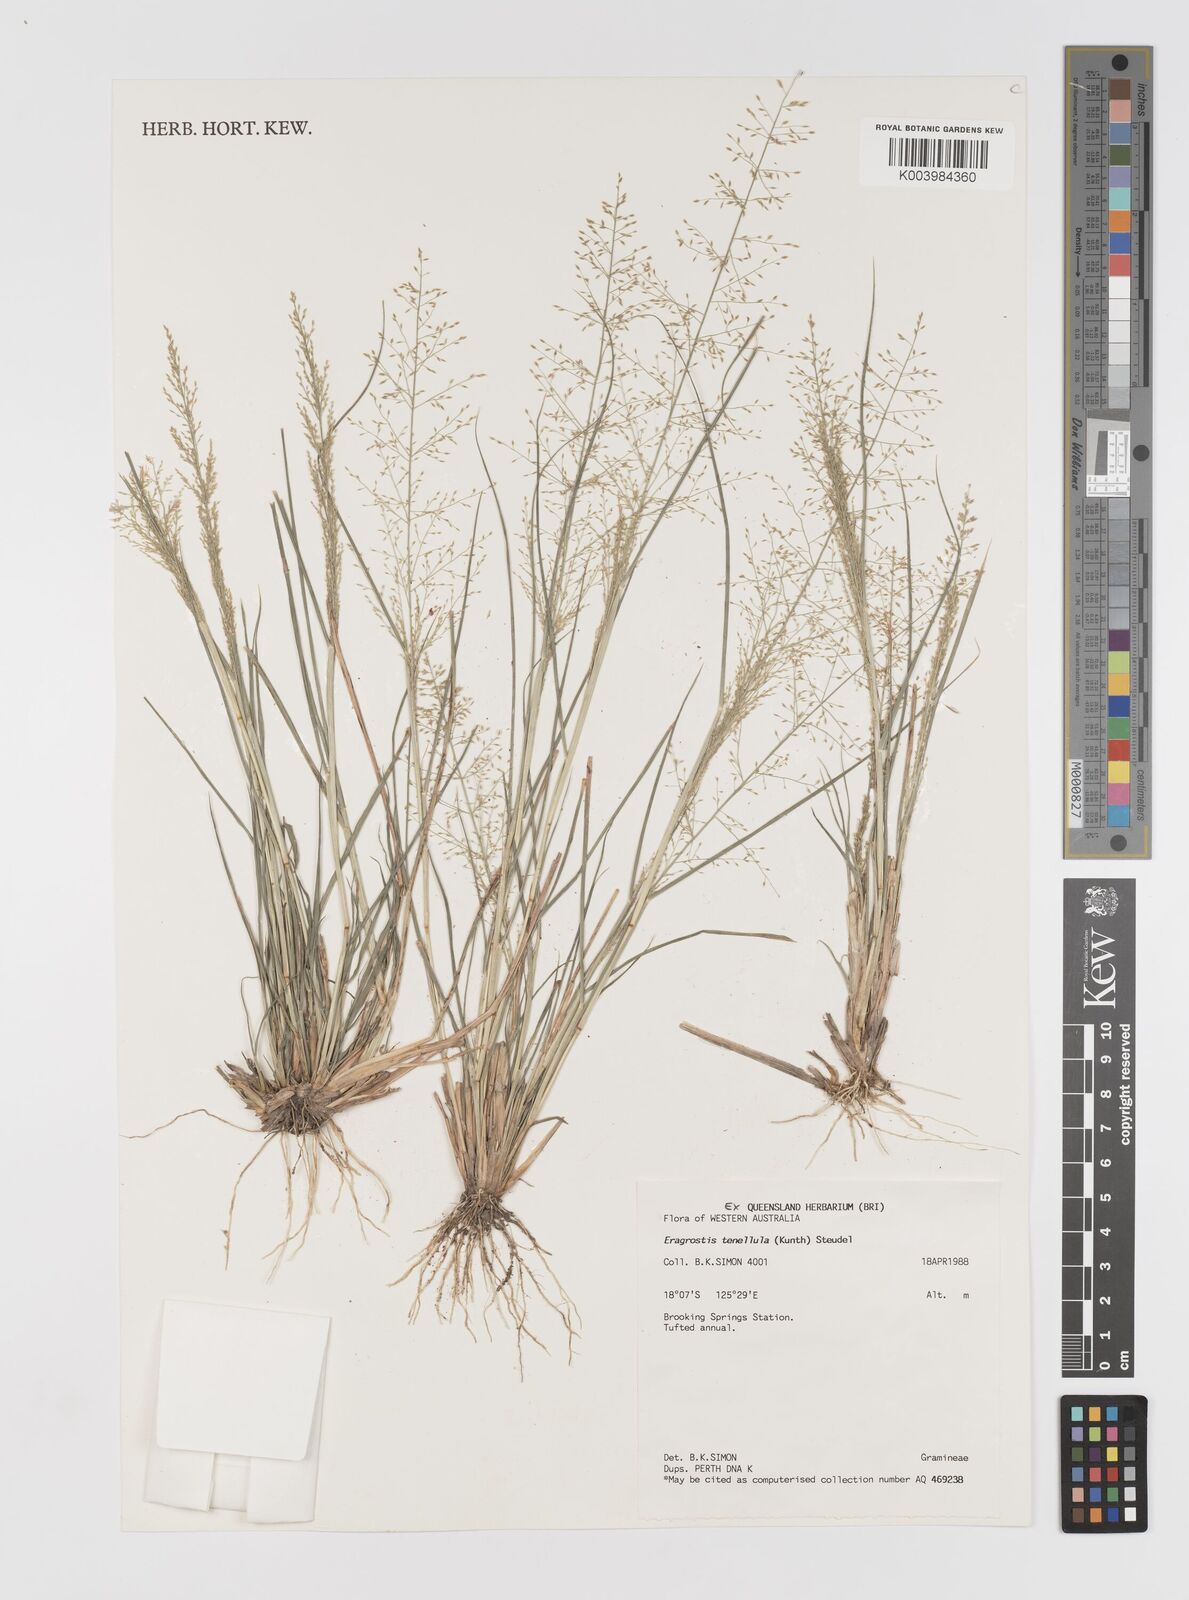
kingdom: Plantae
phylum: Tracheophyta
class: Liliopsida
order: Poales
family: Poaceae
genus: Eragrostis
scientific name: Eragrostis tenellula
